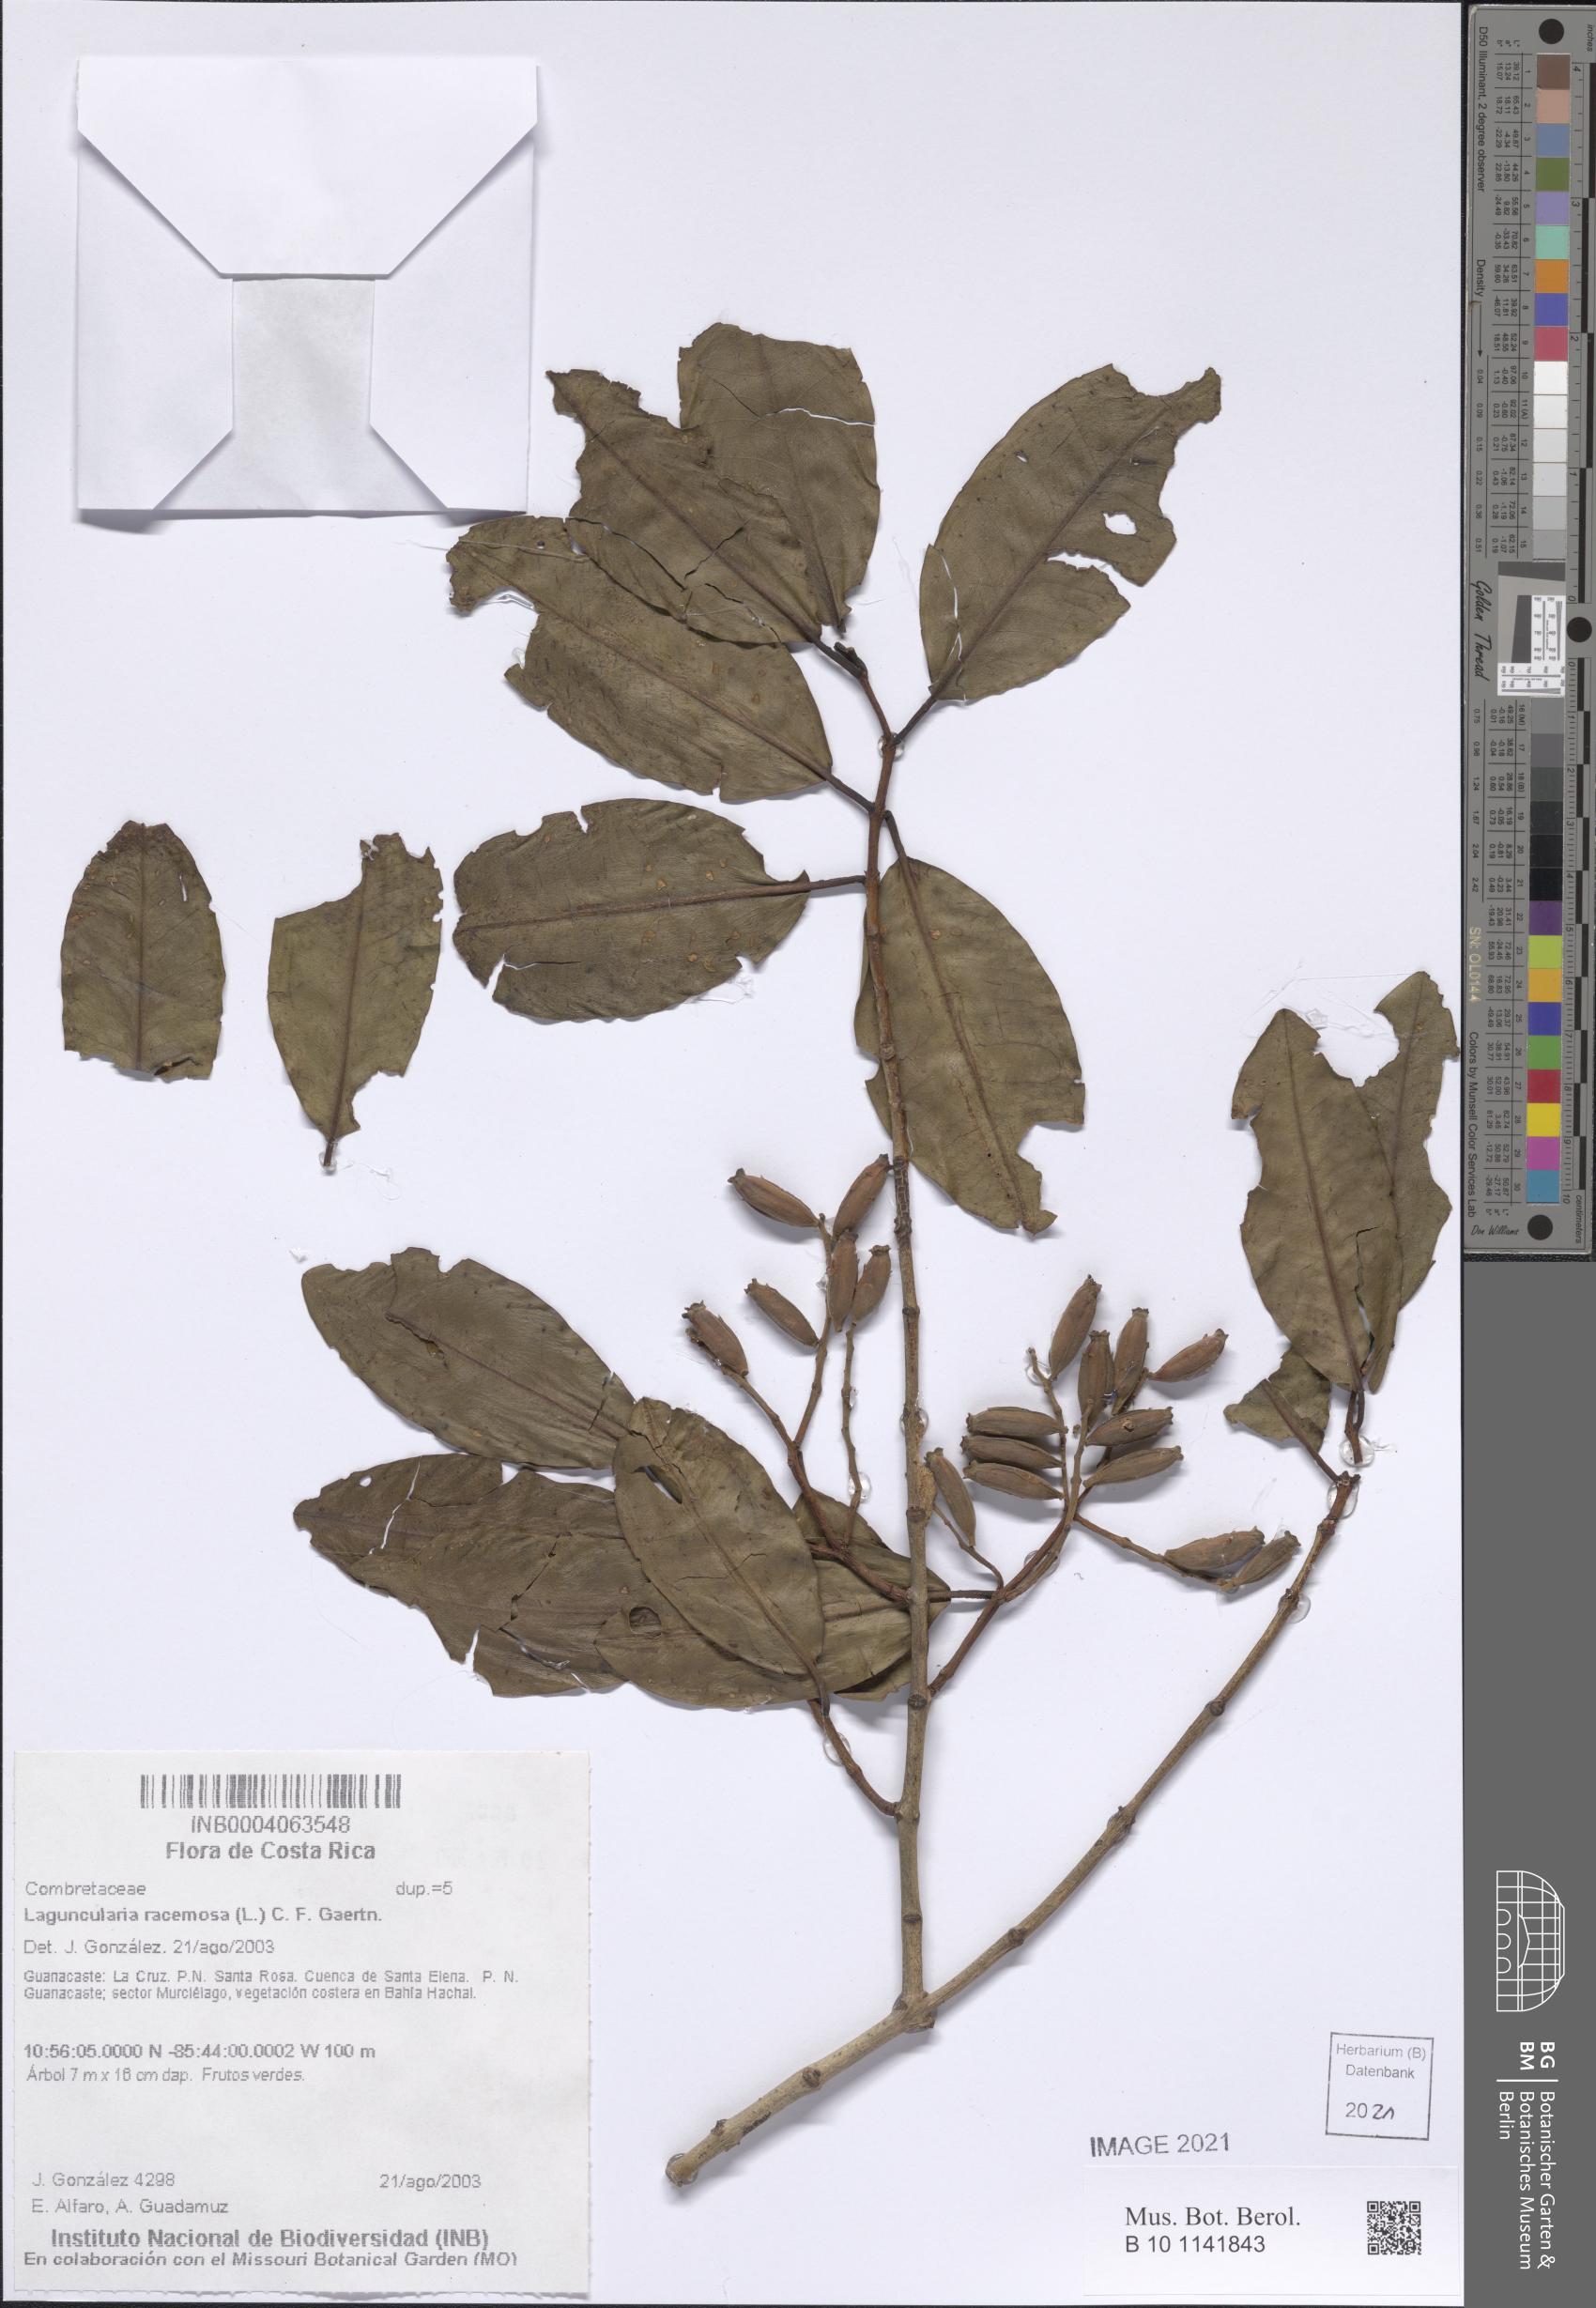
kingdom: Plantae
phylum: Tracheophyta
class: Magnoliopsida
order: Myrtales
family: Combretaceae
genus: Laguncularia
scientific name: Laguncularia racemosa
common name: White mangrove
